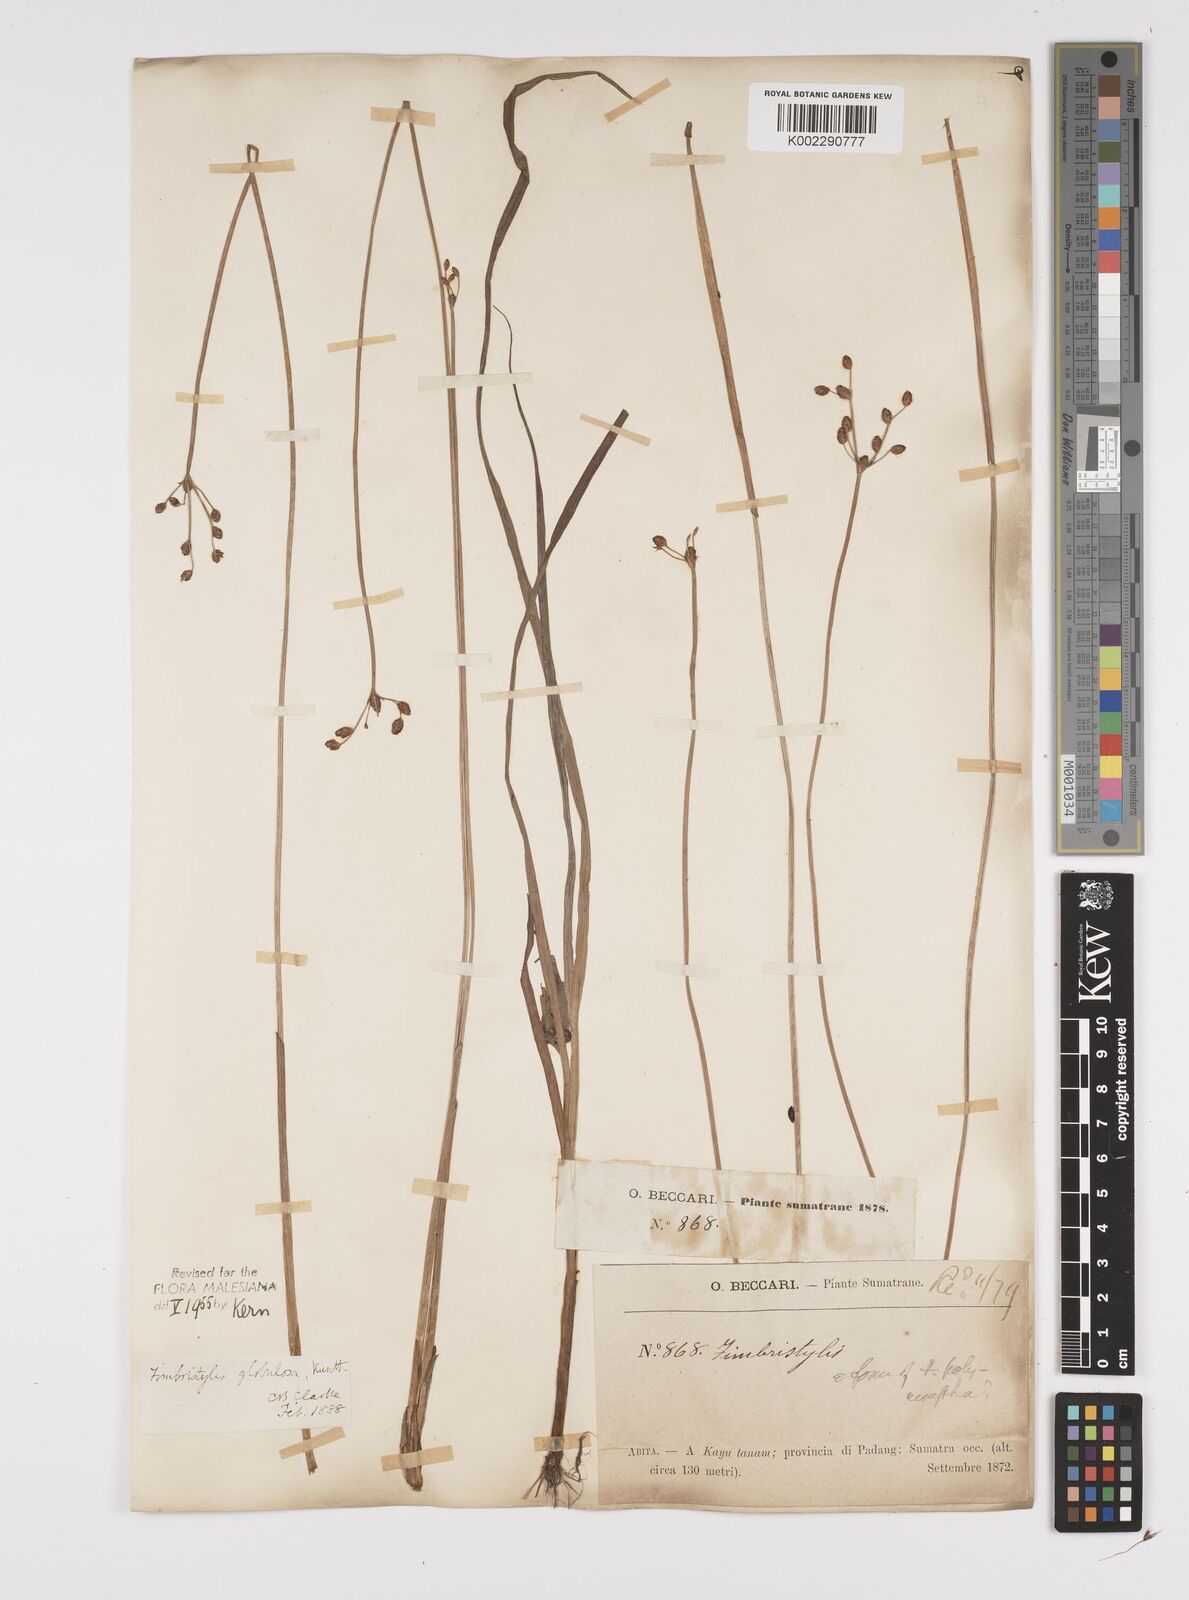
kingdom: Plantae
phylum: Tracheophyta
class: Liliopsida
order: Poales
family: Cyperaceae
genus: Fimbristylis
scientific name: Fimbristylis umbellaris
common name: Globular fimbristylis
